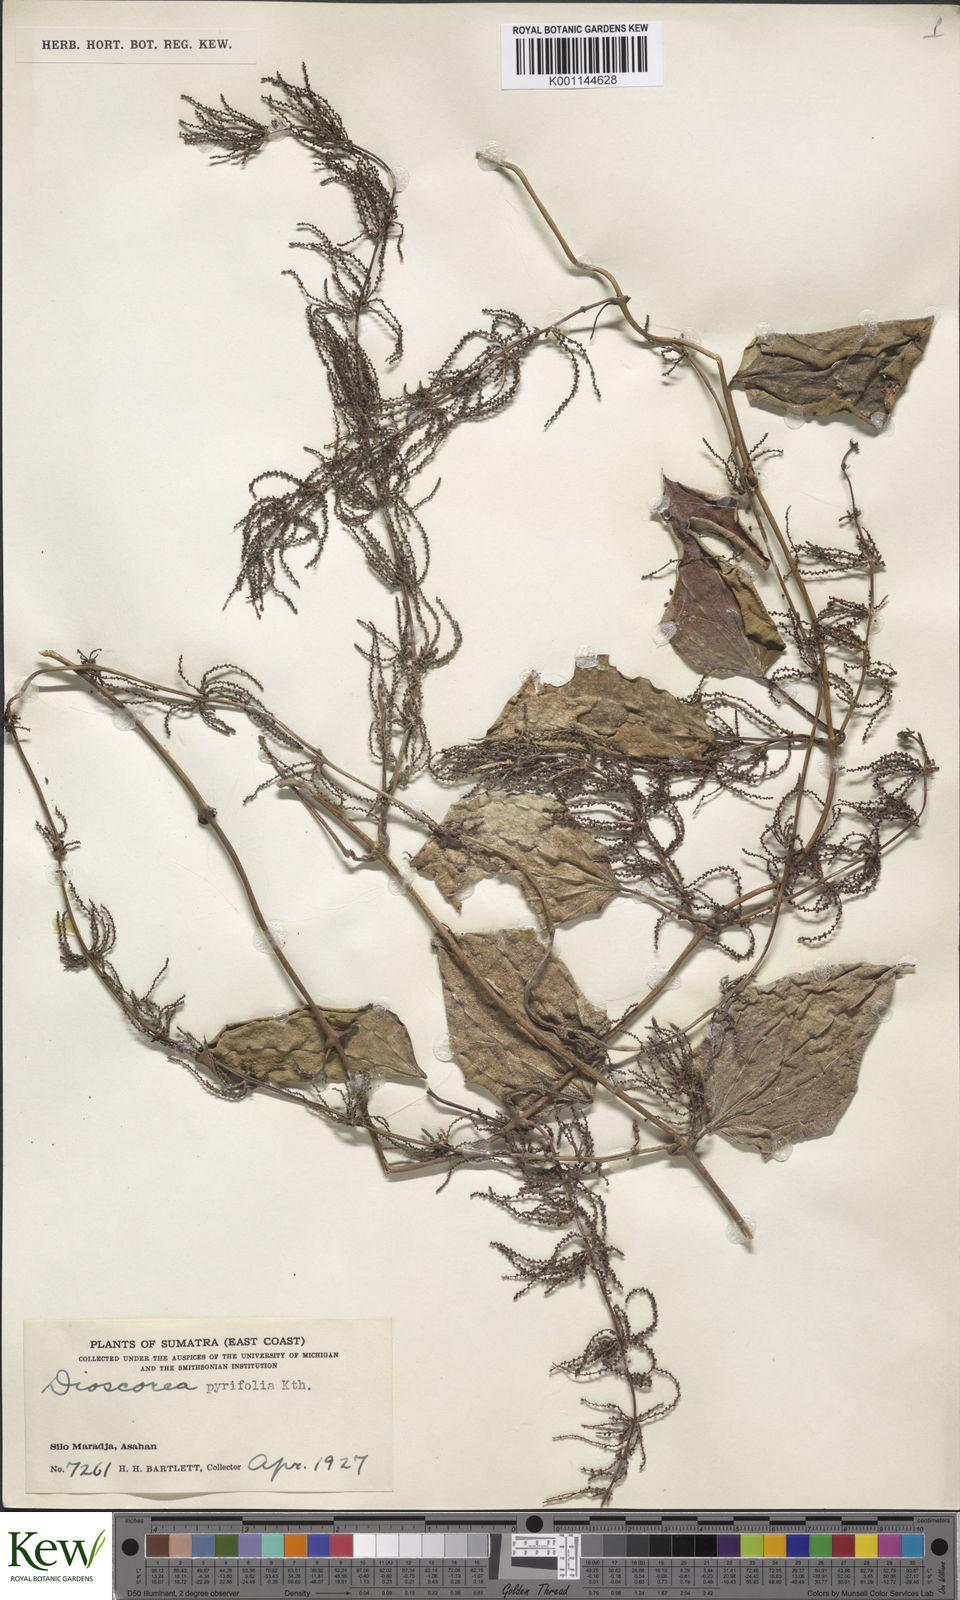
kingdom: Plantae
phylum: Tracheophyta
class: Liliopsida
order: Dioscoreales
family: Dioscoreaceae
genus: Dioscorea
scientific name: Dioscorea pyrifolia
